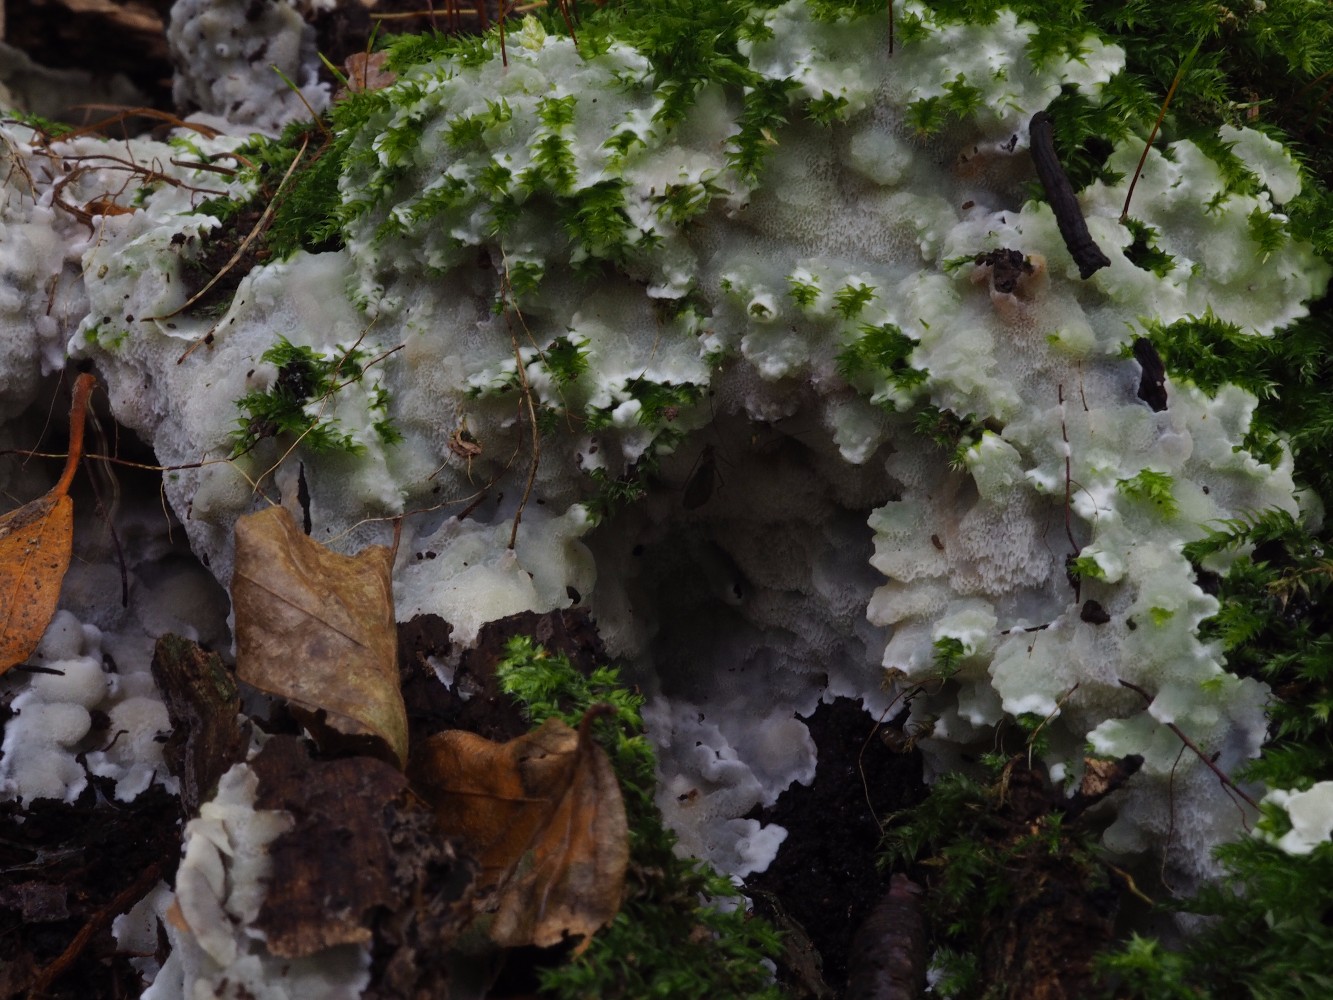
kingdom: Fungi
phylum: Basidiomycota
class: Agaricomycetes
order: Polyporales
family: Meruliaceae
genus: Physisporinus
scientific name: Physisporinus vitreus
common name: mastesvamp
